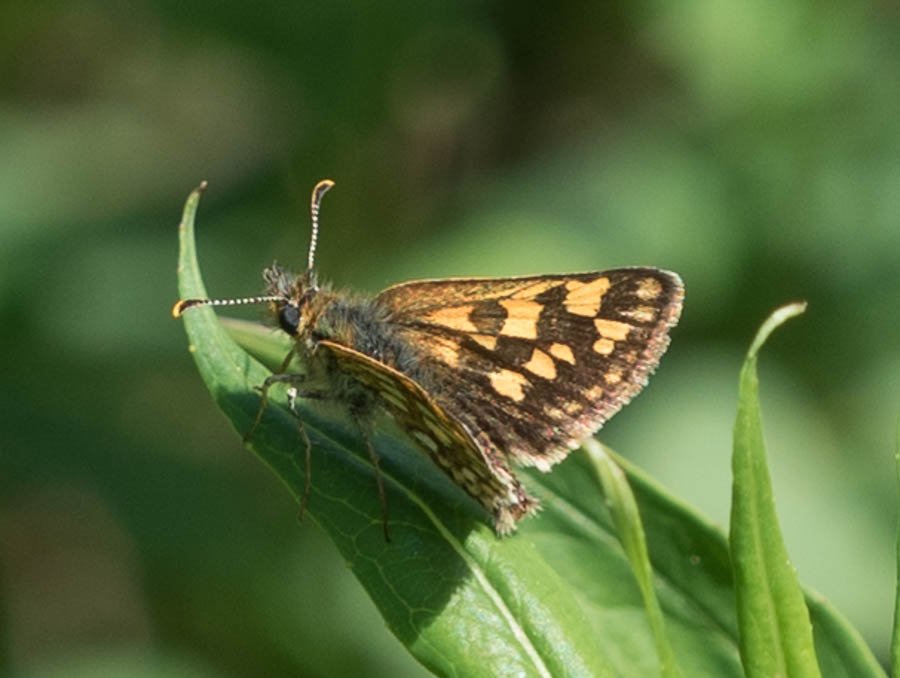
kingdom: Animalia
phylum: Arthropoda
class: Insecta
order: Lepidoptera
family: Hesperiidae
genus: Carterocephalus
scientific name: Carterocephalus palaemon
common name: Chequered Skipper
